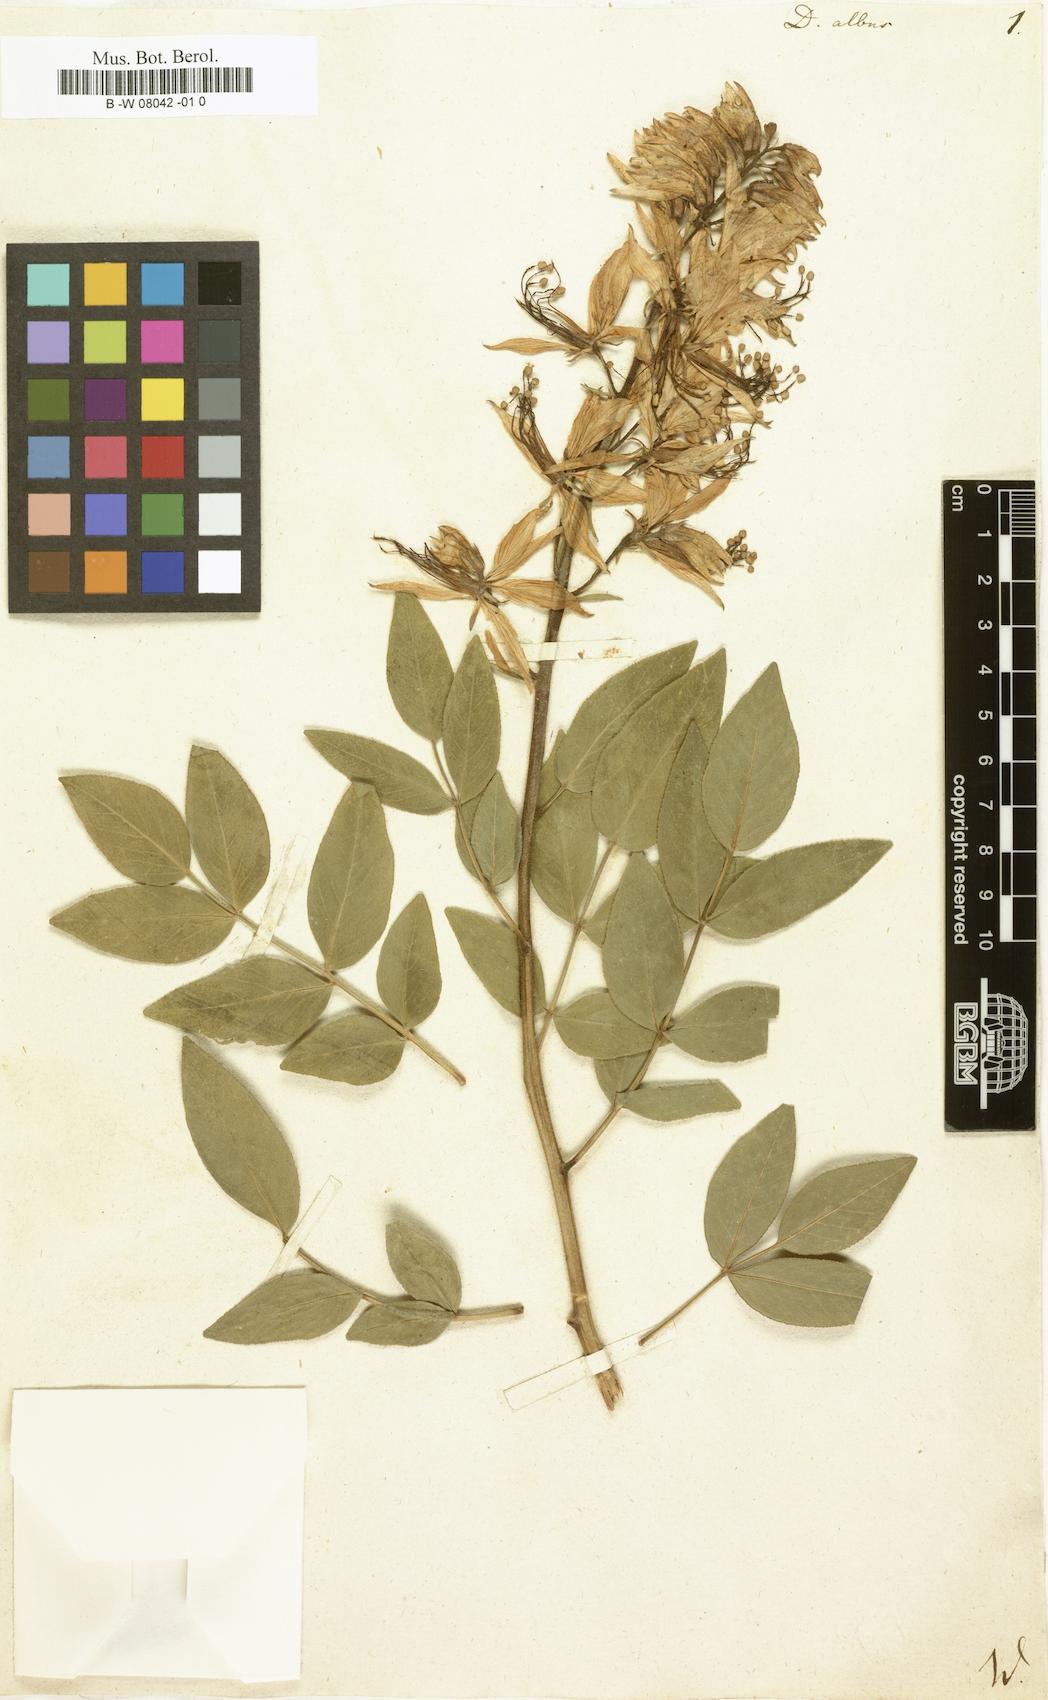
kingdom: Plantae
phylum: Tracheophyta
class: Magnoliopsida
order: Sapindales
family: Rutaceae
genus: Dictamnus
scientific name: Dictamnus albus
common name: Gasplant
